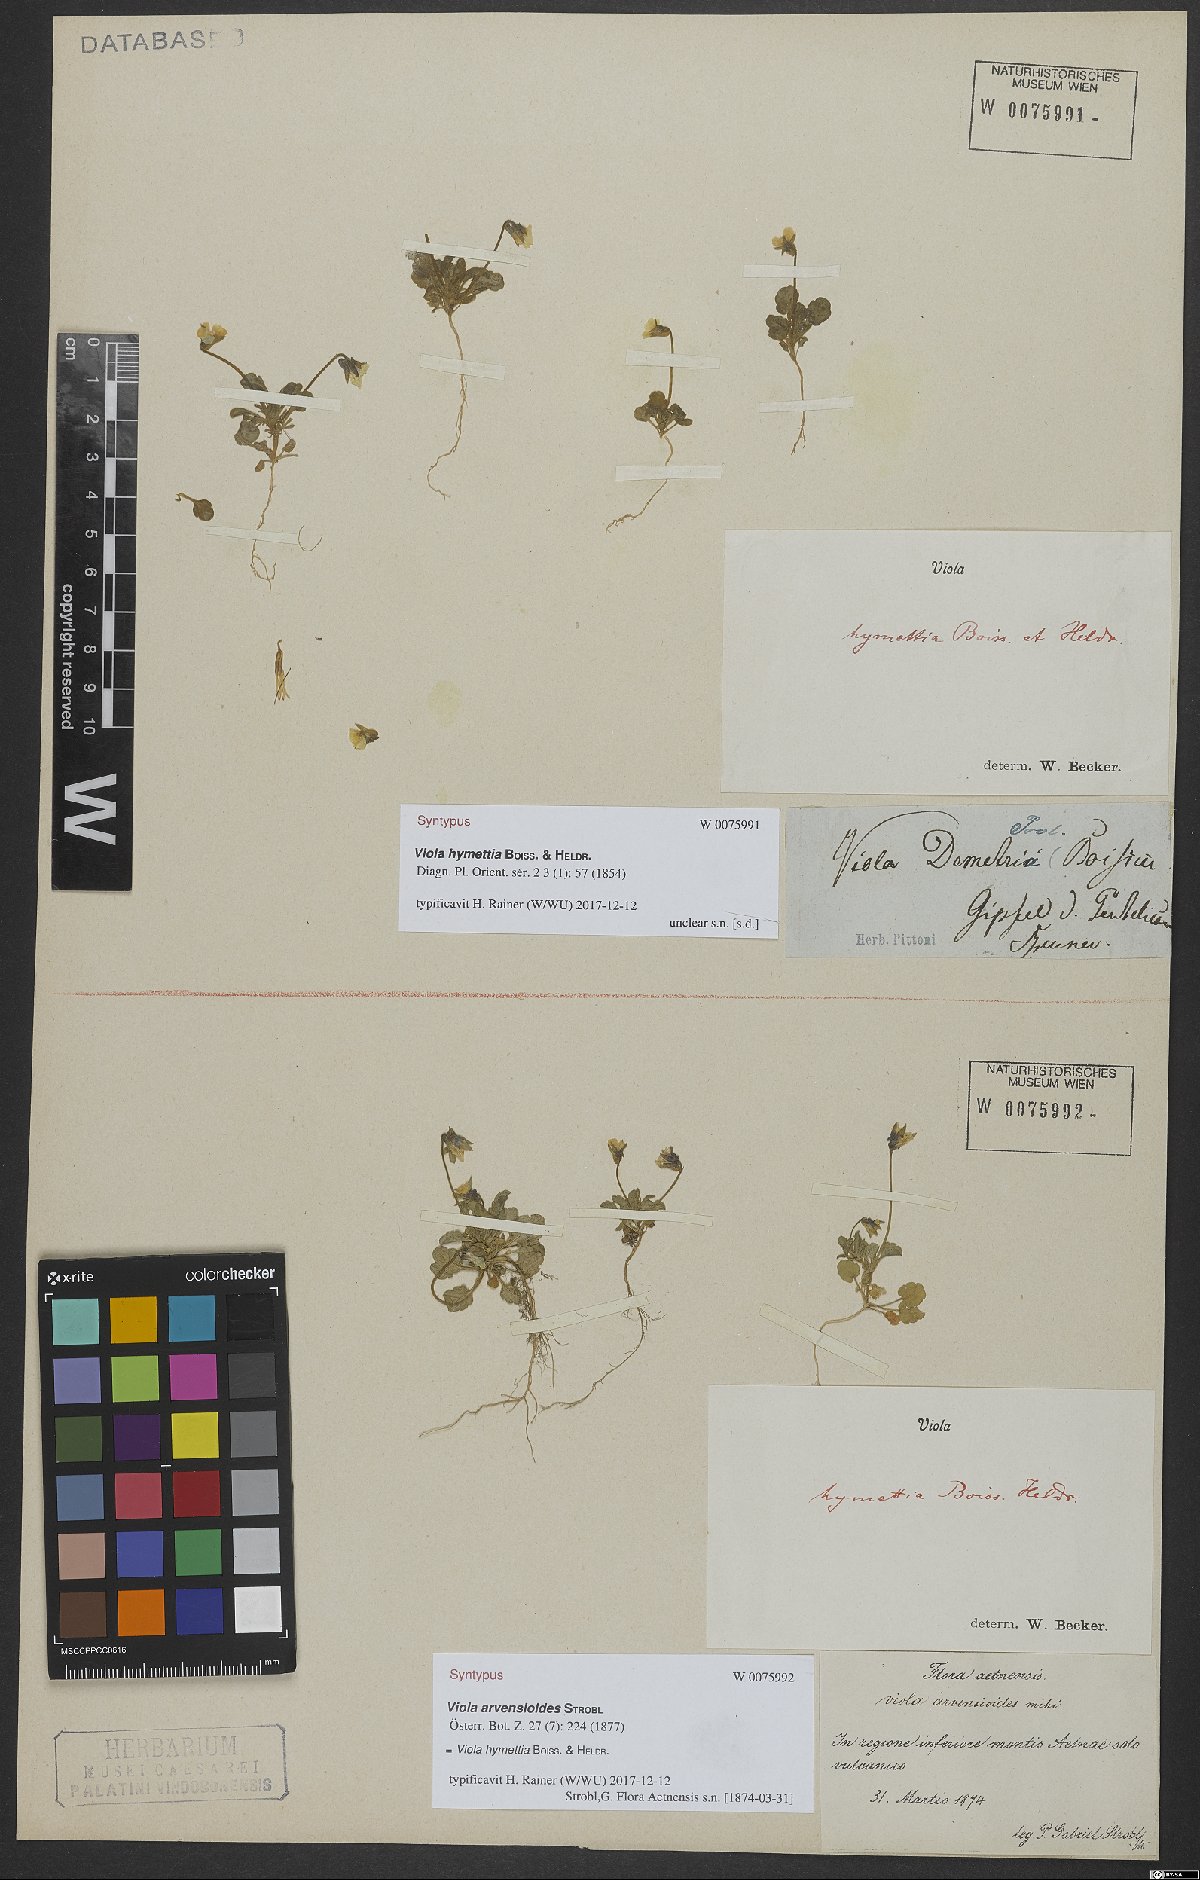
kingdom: Plantae
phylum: Tracheophyta
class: Magnoliopsida
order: Malpighiales
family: Violaceae
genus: Viola
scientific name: Viola hymettia
